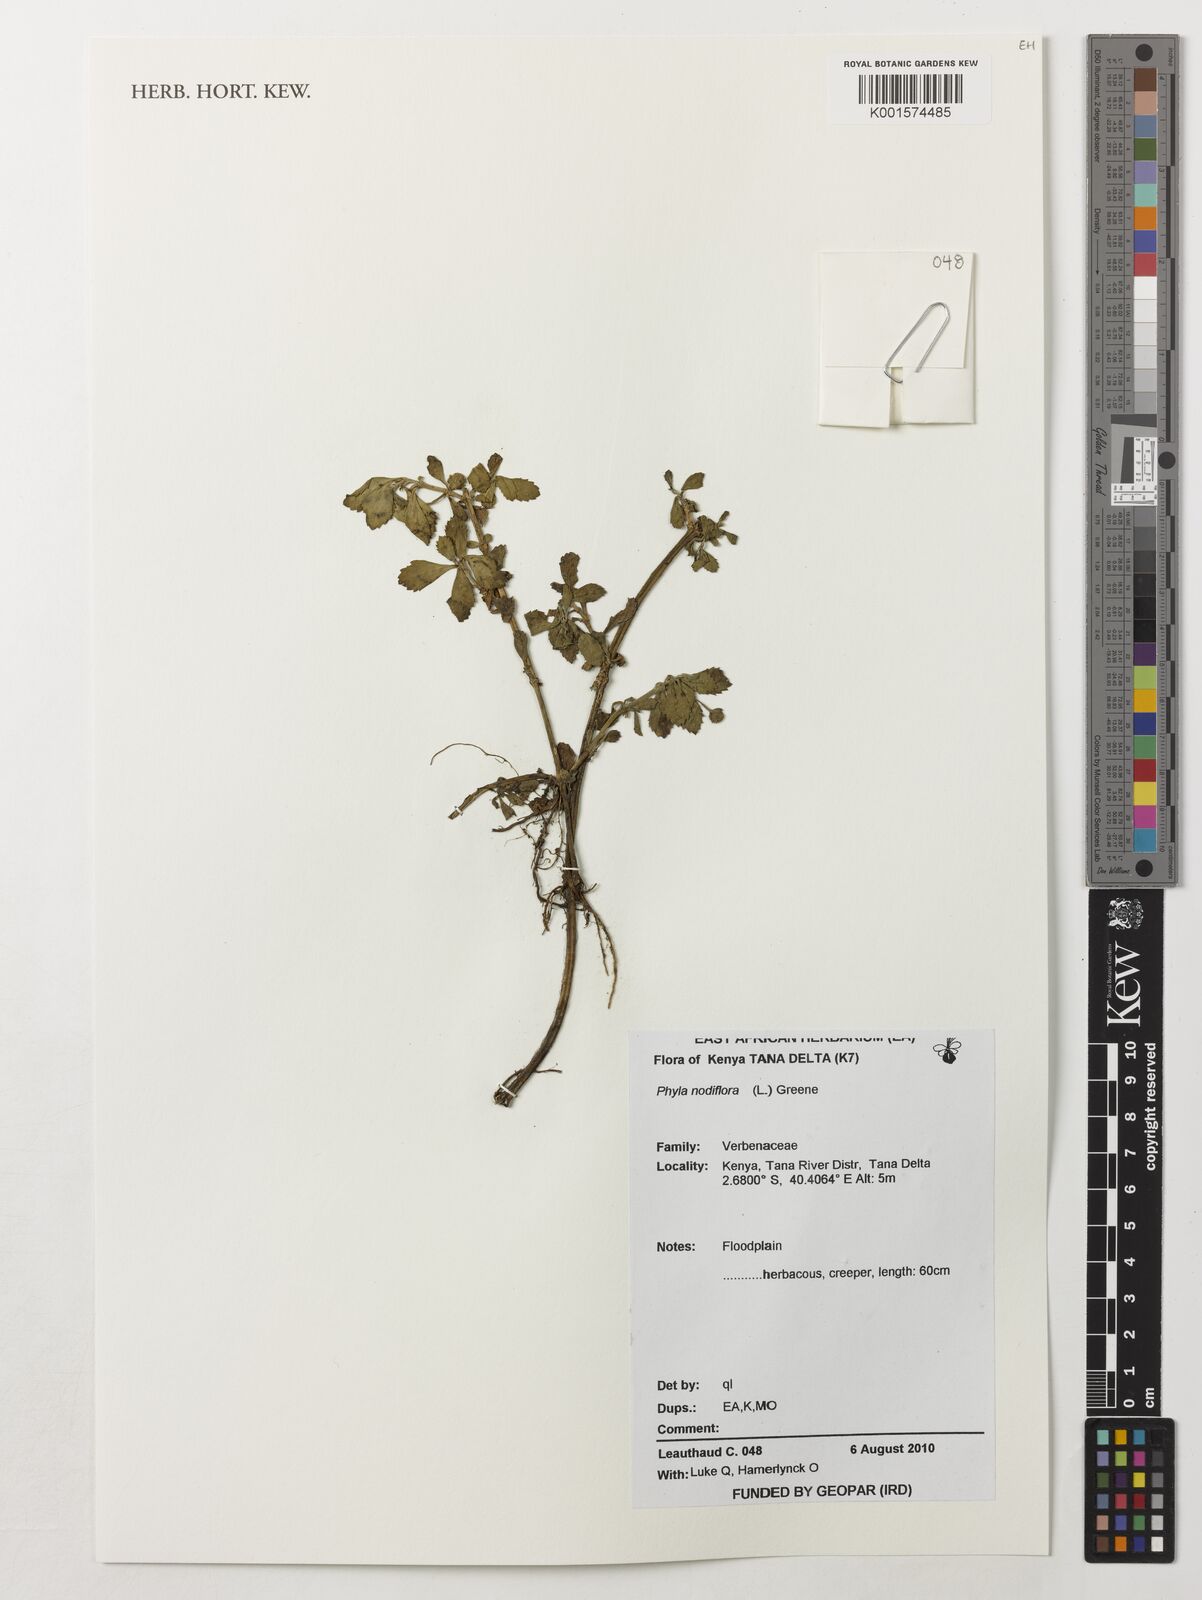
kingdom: Plantae
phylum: Tracheophyta
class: Magnoliopsida
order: Lamiales
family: Verbenaceae
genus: Phyla
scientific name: Phyla nodiflora
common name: Frogfruit
